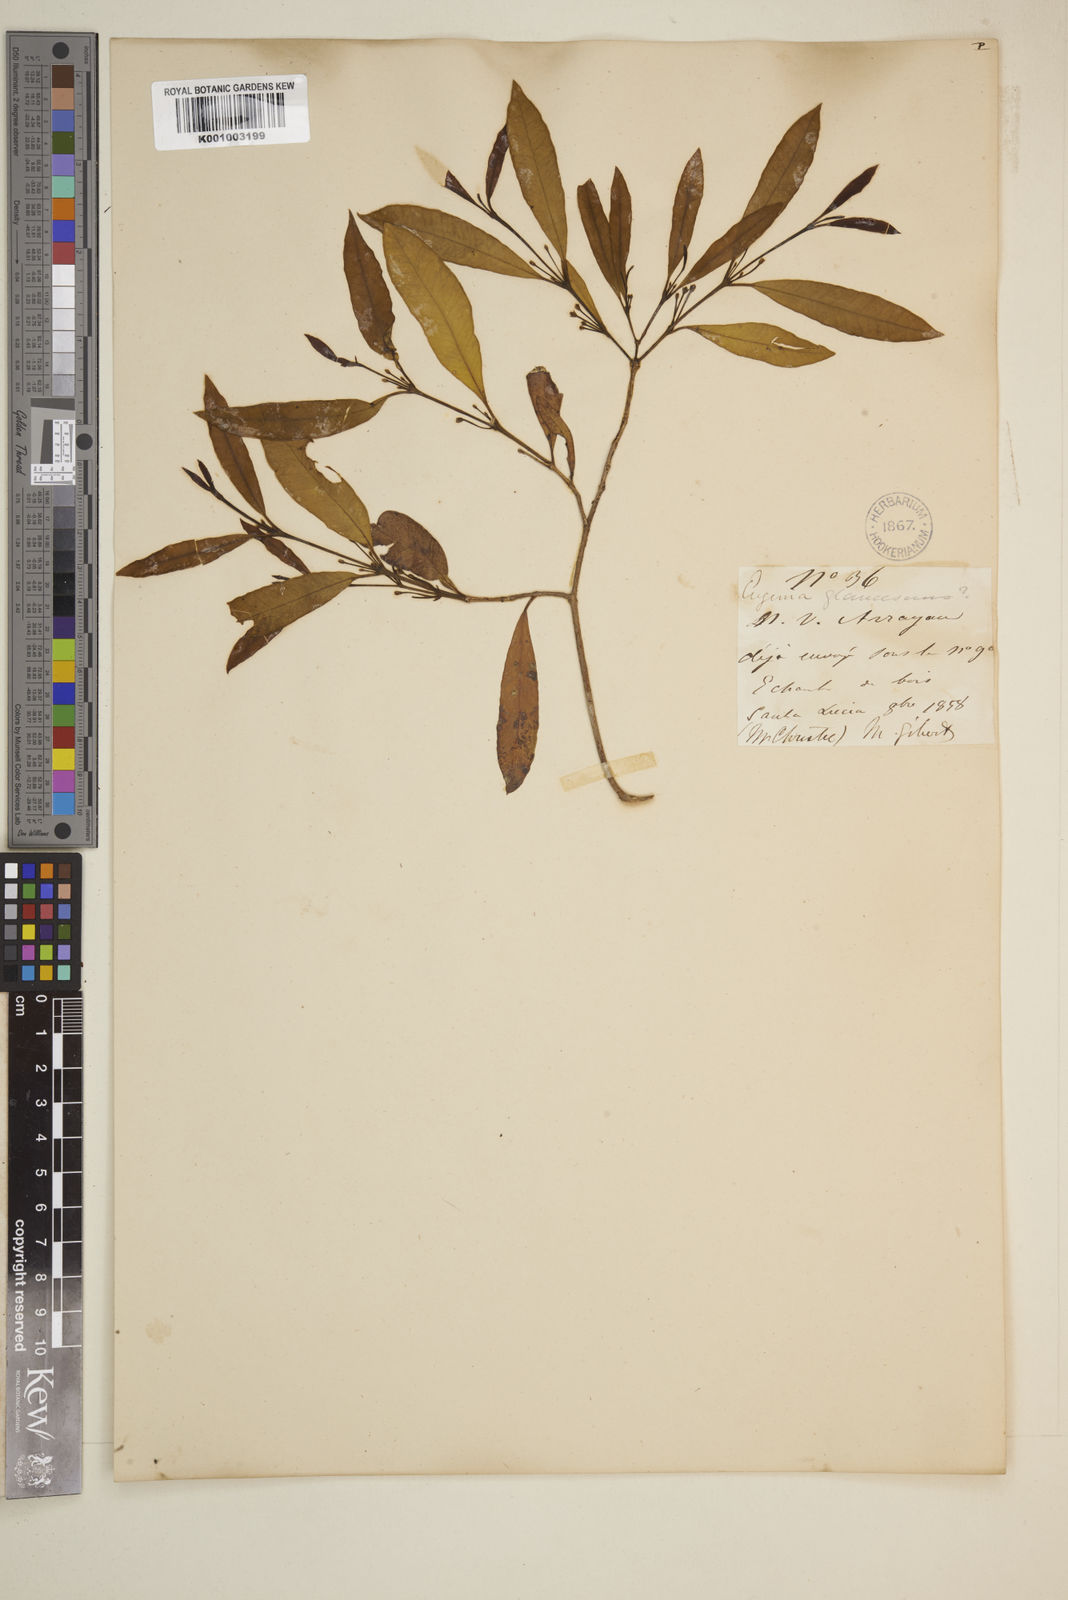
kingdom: Plantae
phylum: Tracheophyta
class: Magnoliopsida
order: Myrtales
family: Myrtaceae
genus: Myrceugenia
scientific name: Myrceugenia glaucescens
